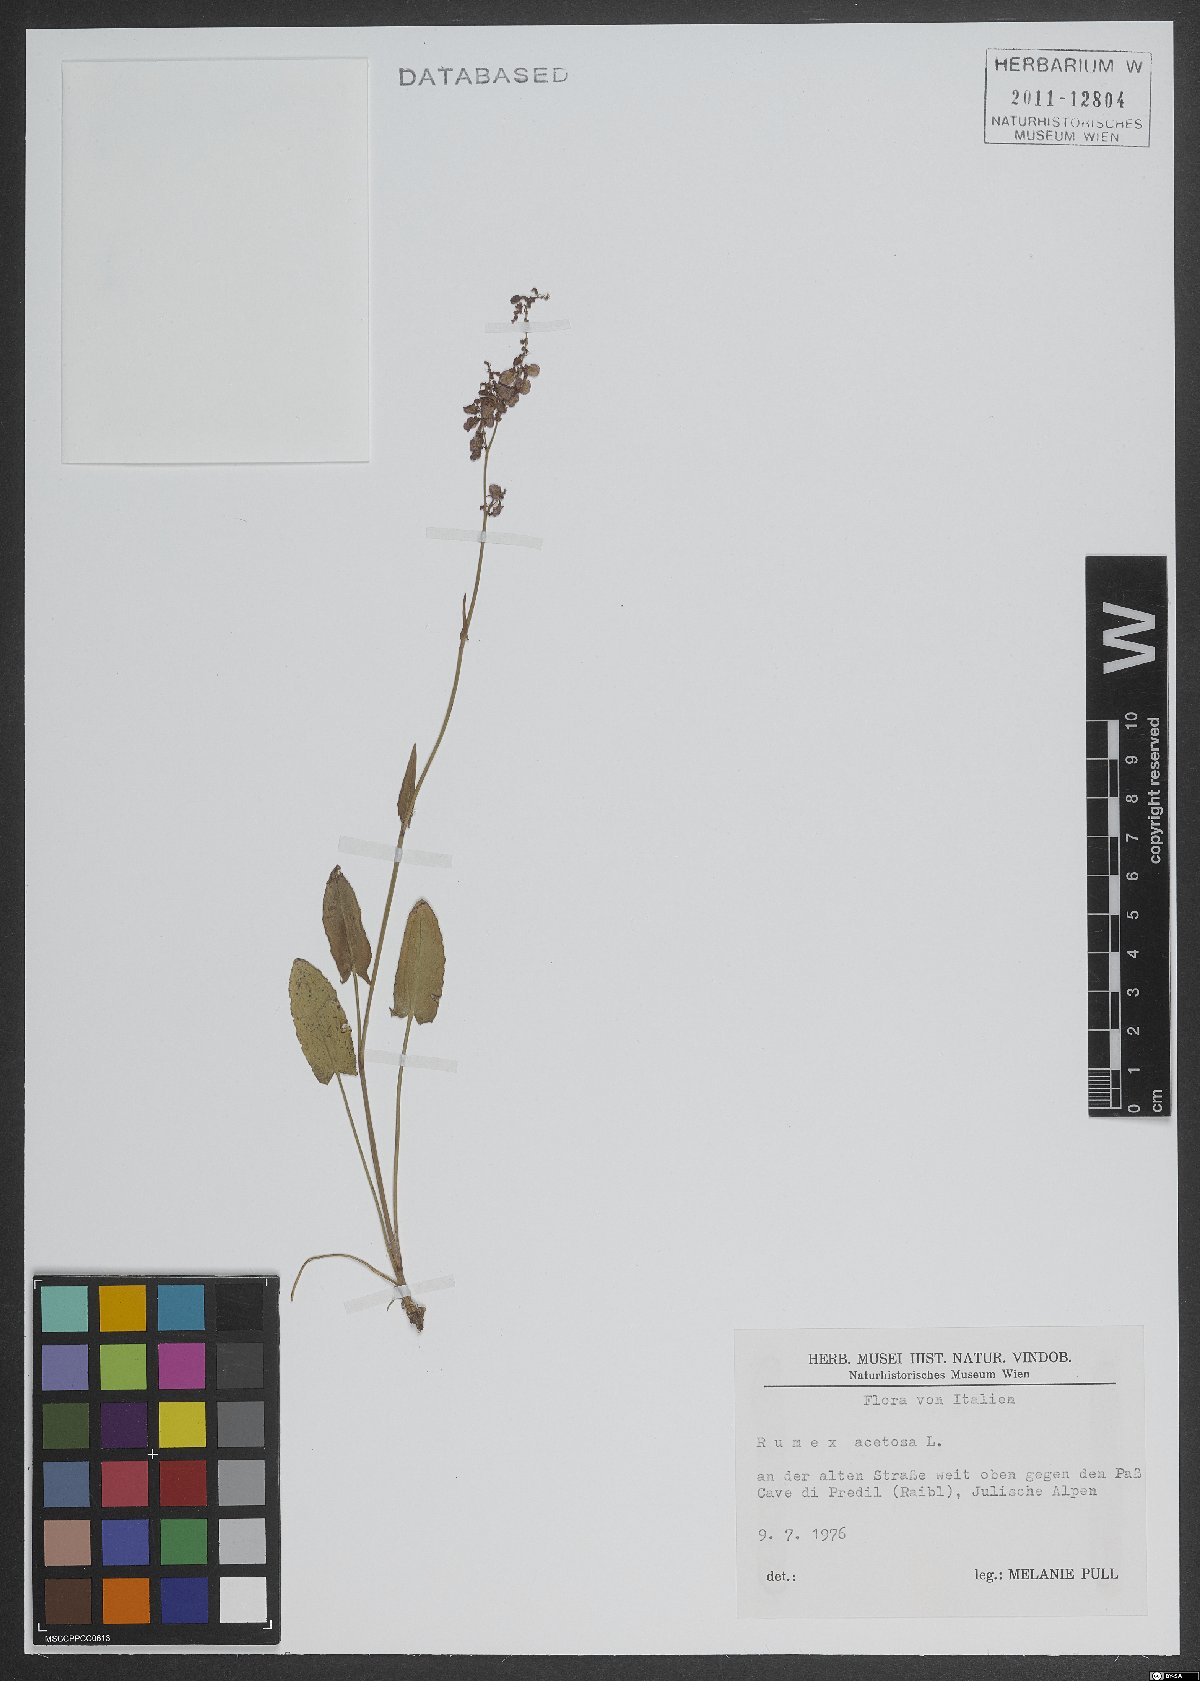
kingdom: Plantae
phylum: Tracheophyta
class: Magnoliopsida
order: Caryophyllales
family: Polygonaceae
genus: Rumex
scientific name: Rumex acetosa
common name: Garden sorrel
